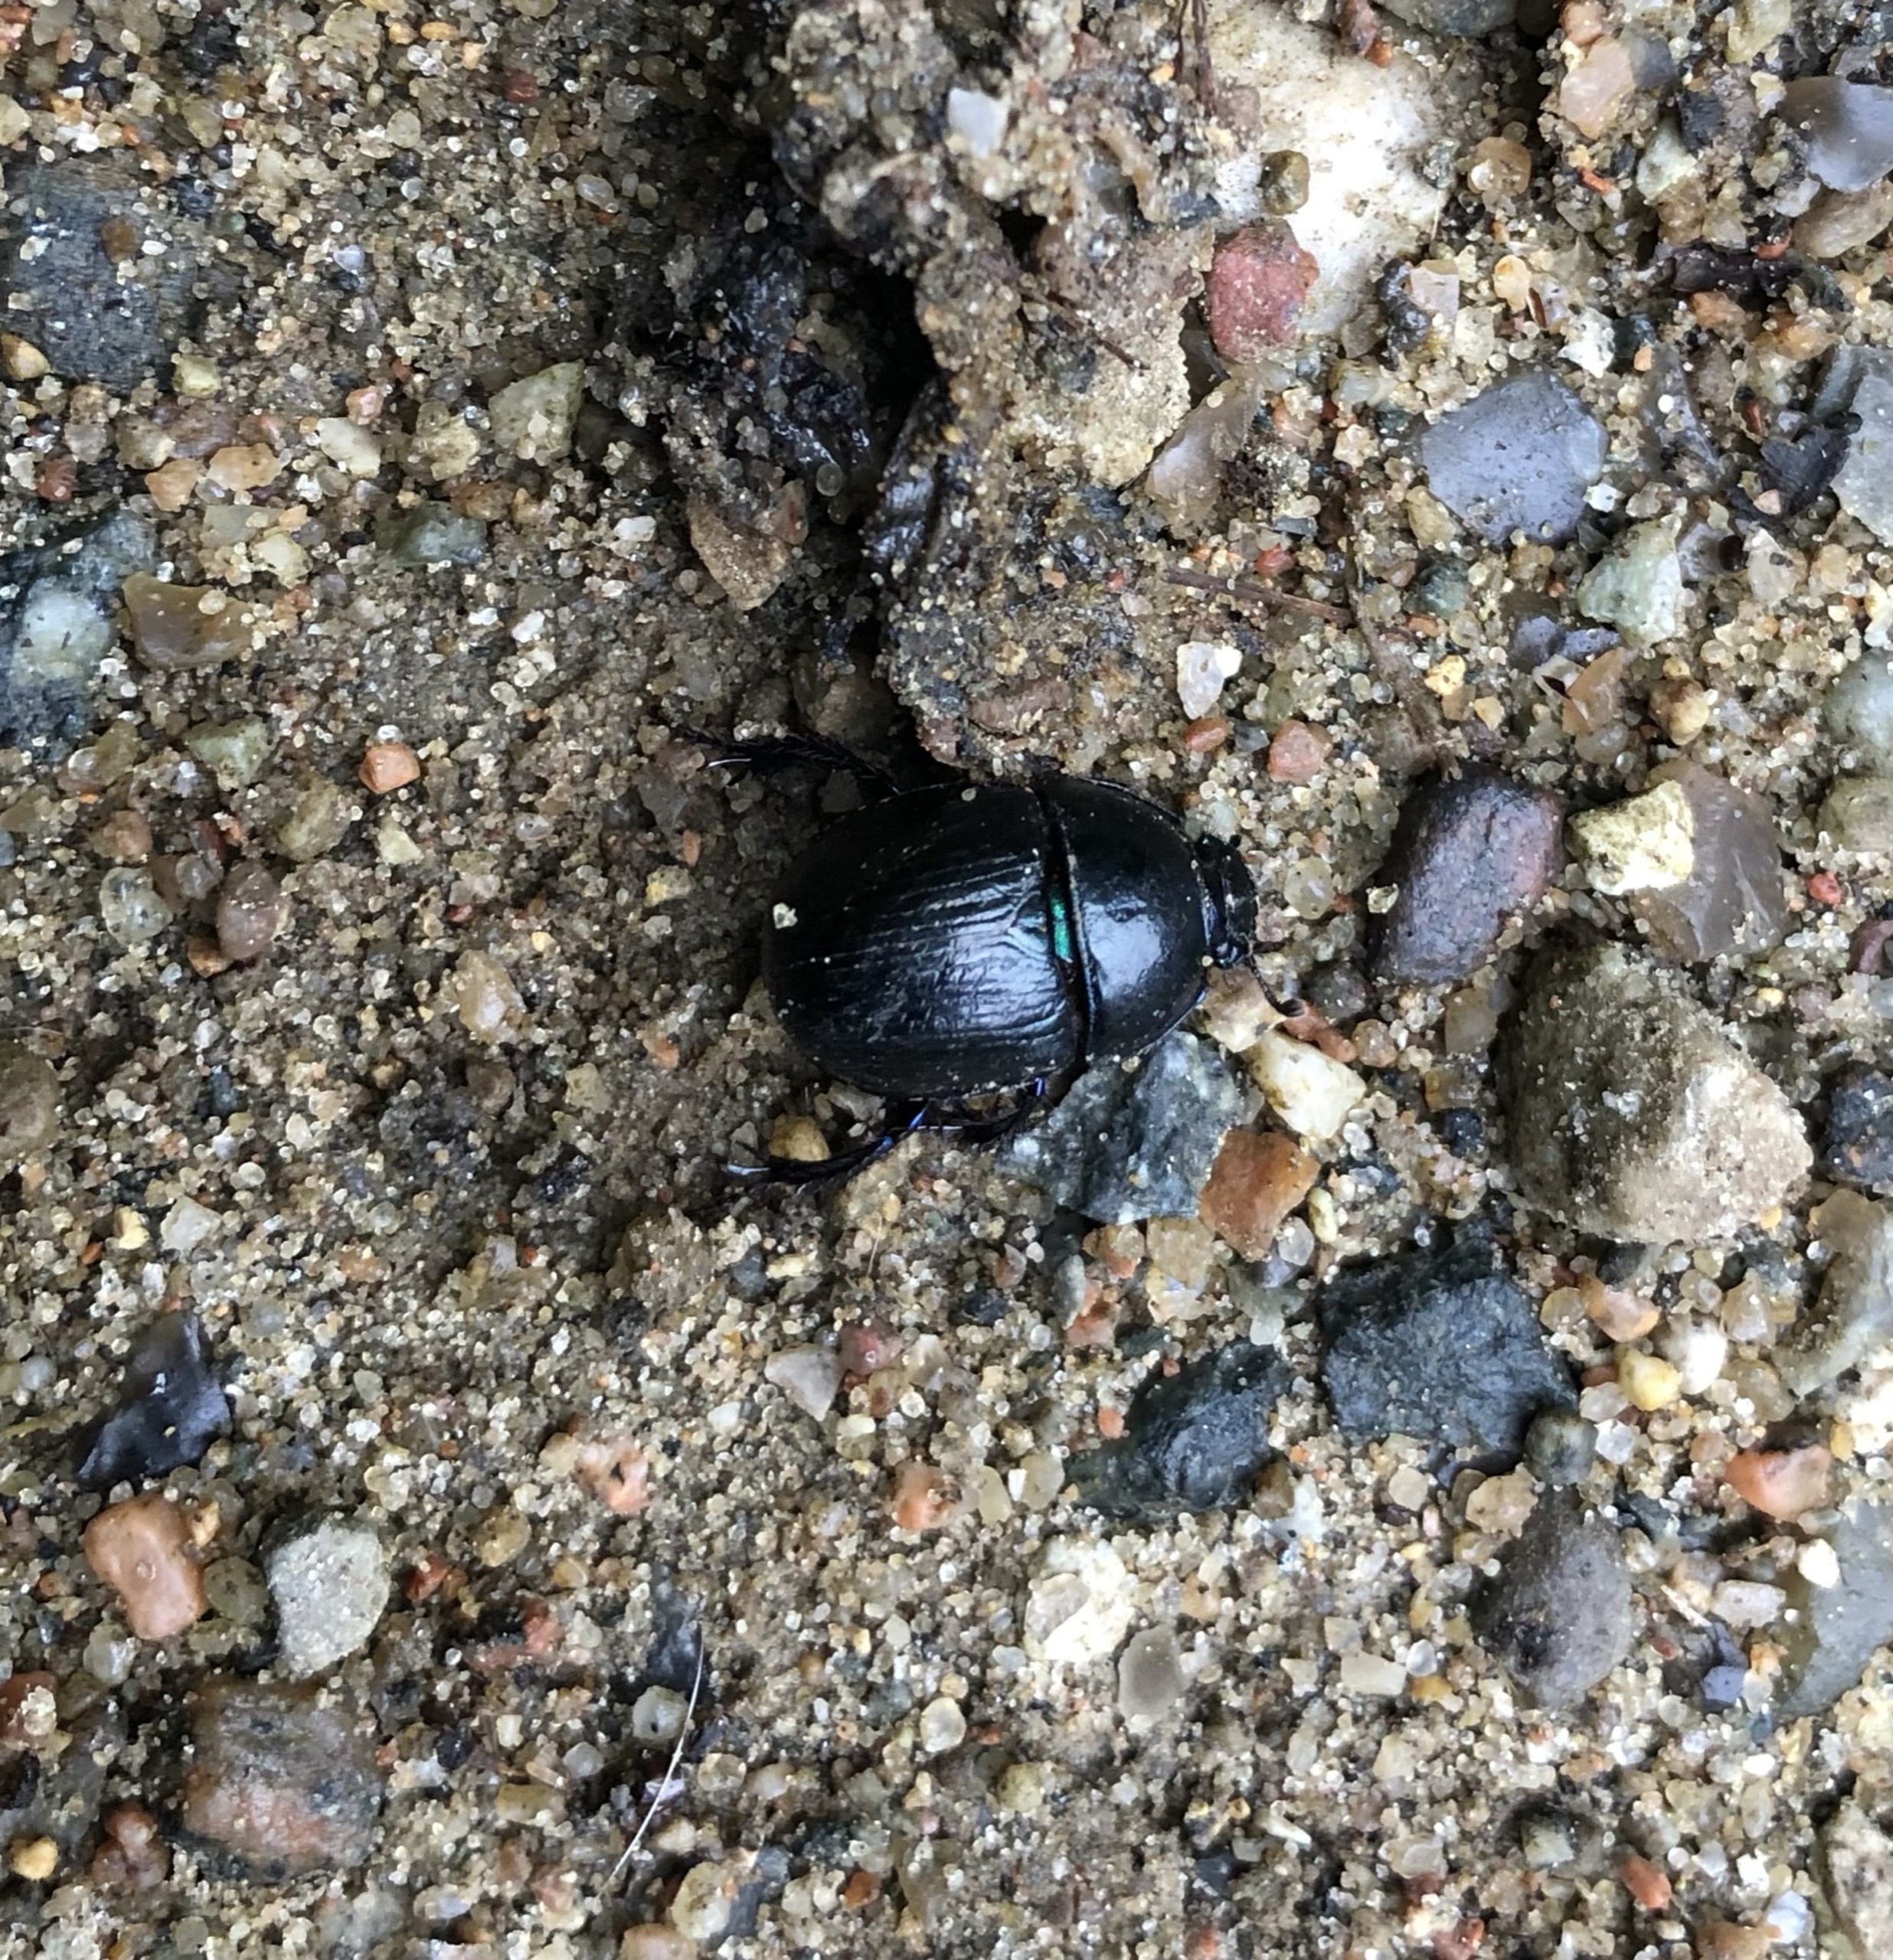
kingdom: Animalia
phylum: Arthropoda
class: Insecta
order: Coleoptera
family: Geotrupidae
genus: Anoplotrupes
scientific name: Anoplotrupes stercorosus
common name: Skovskarnbasse
